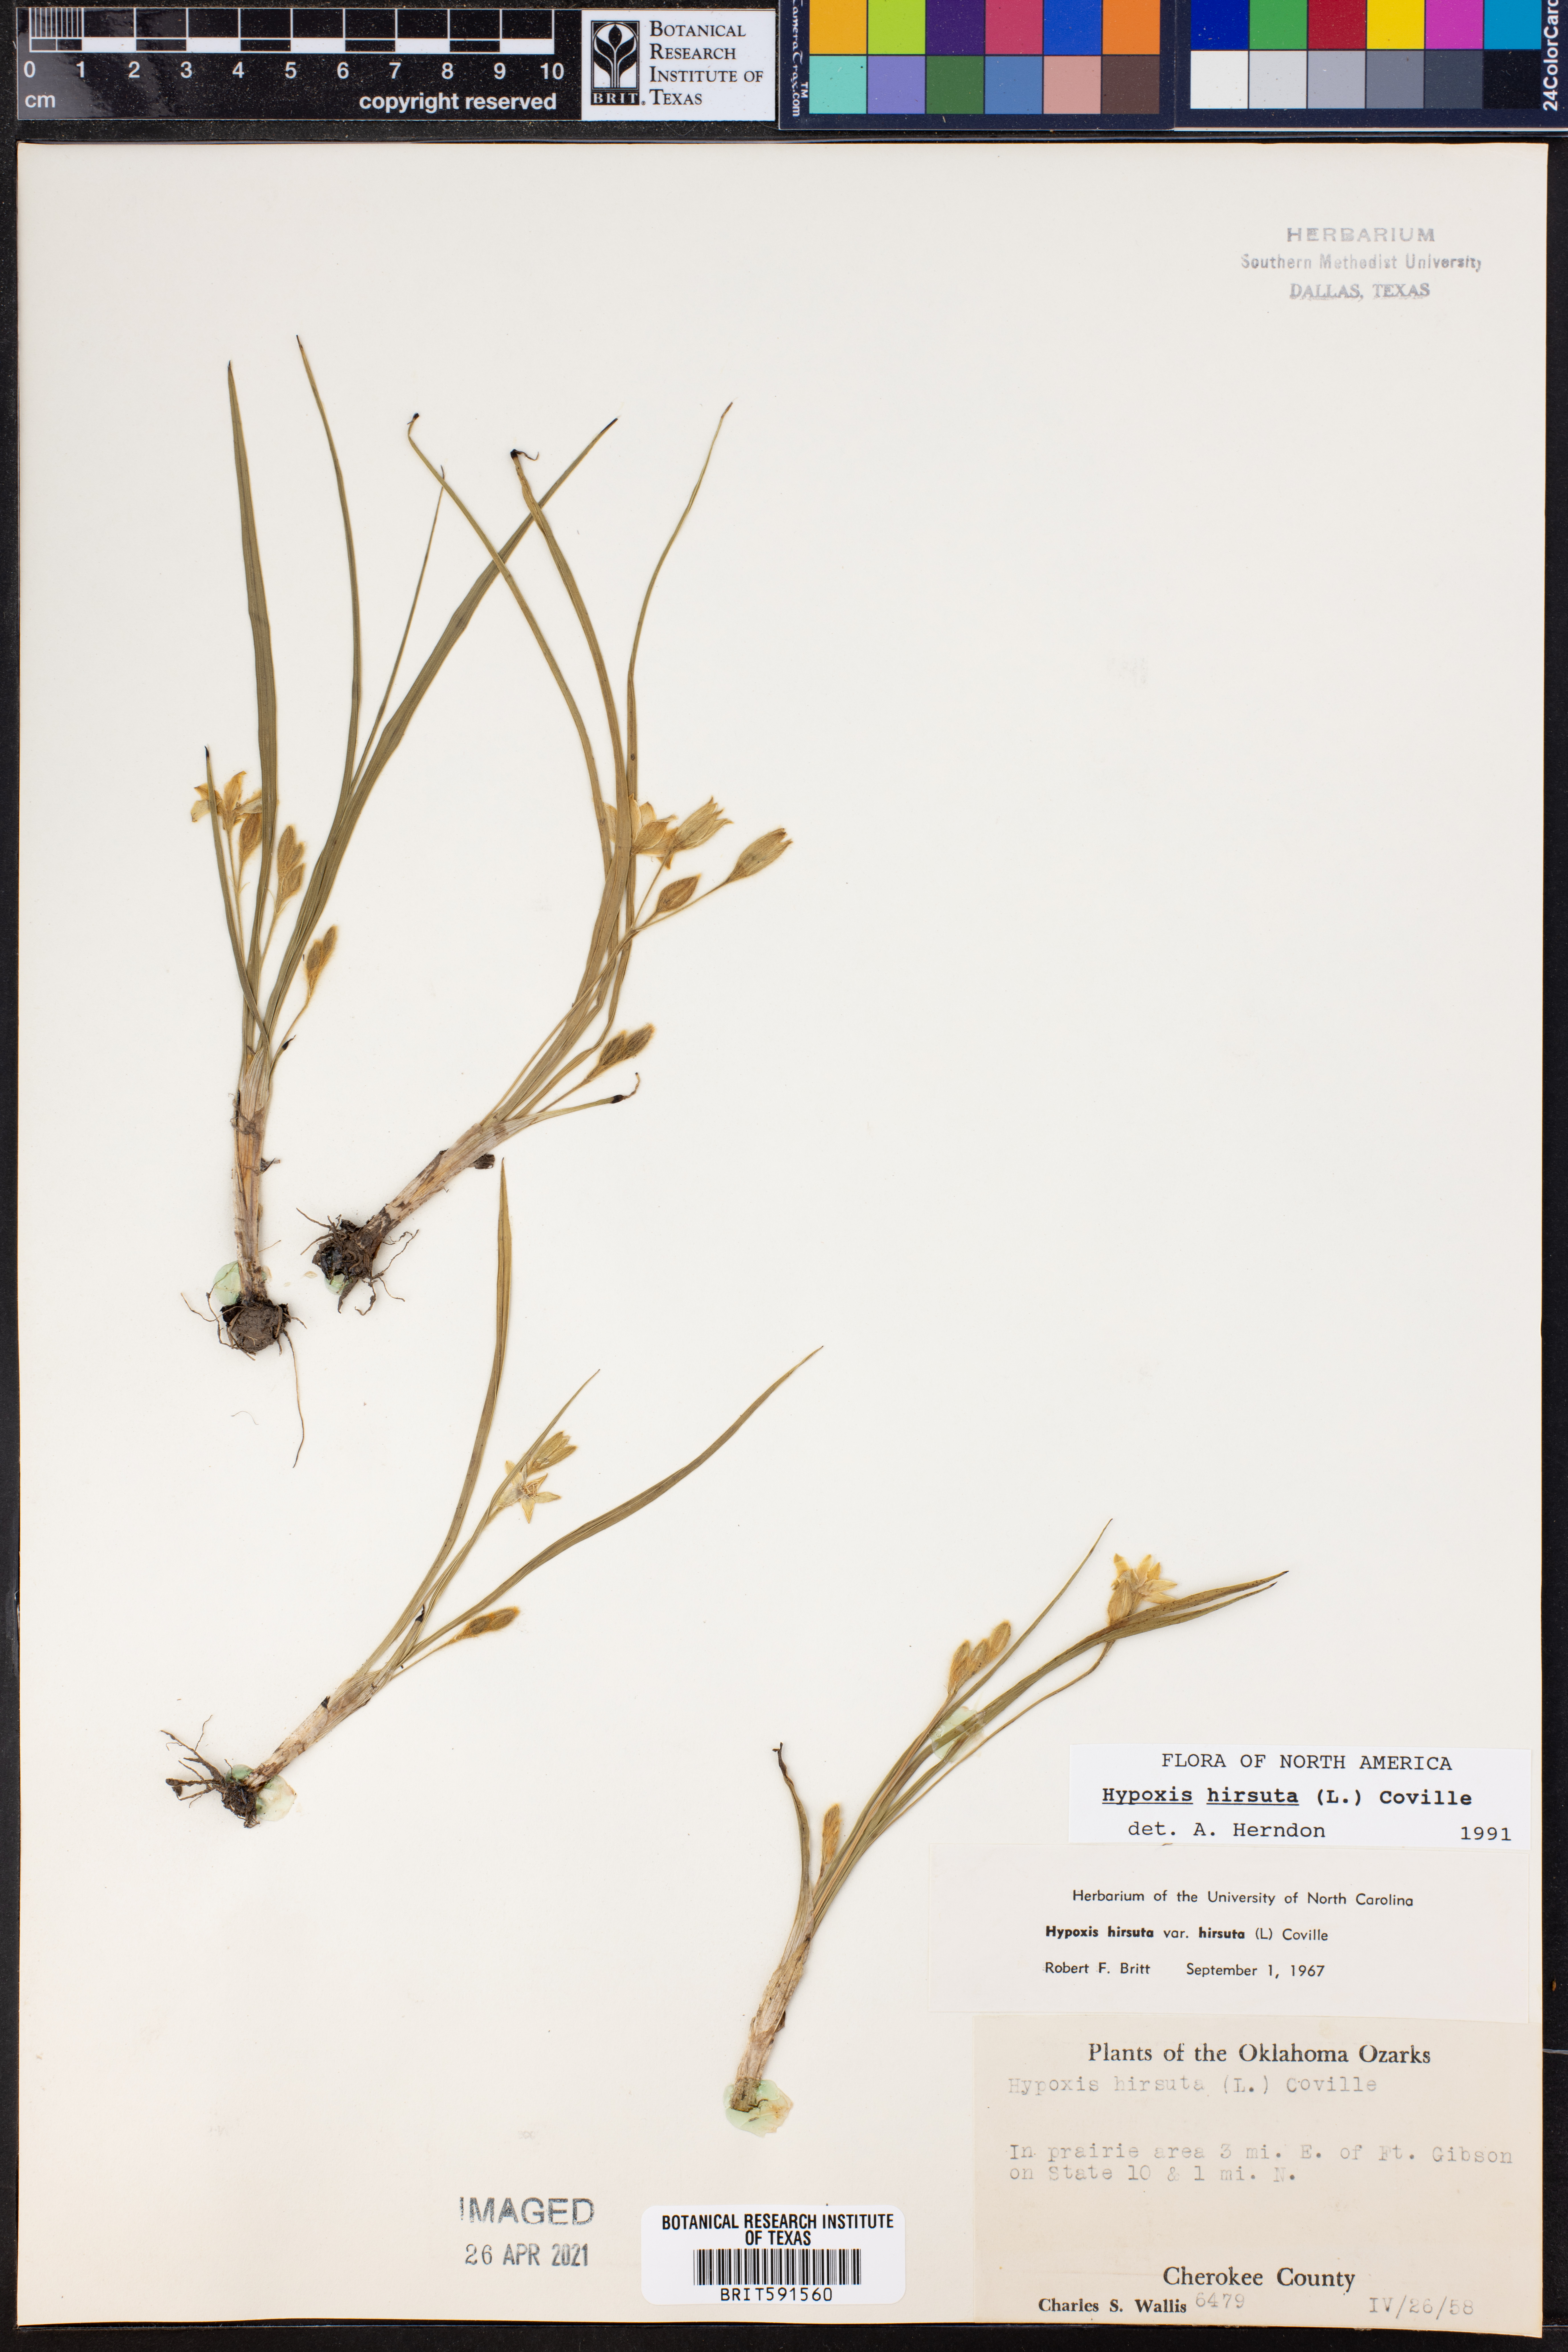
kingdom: Plantae
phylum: Tracheophyta
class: Liliopsida
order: Asparagales
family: Hypoxidaceae
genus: Hypoxis
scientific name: Hypoxis hirsuta
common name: Common goldstar
